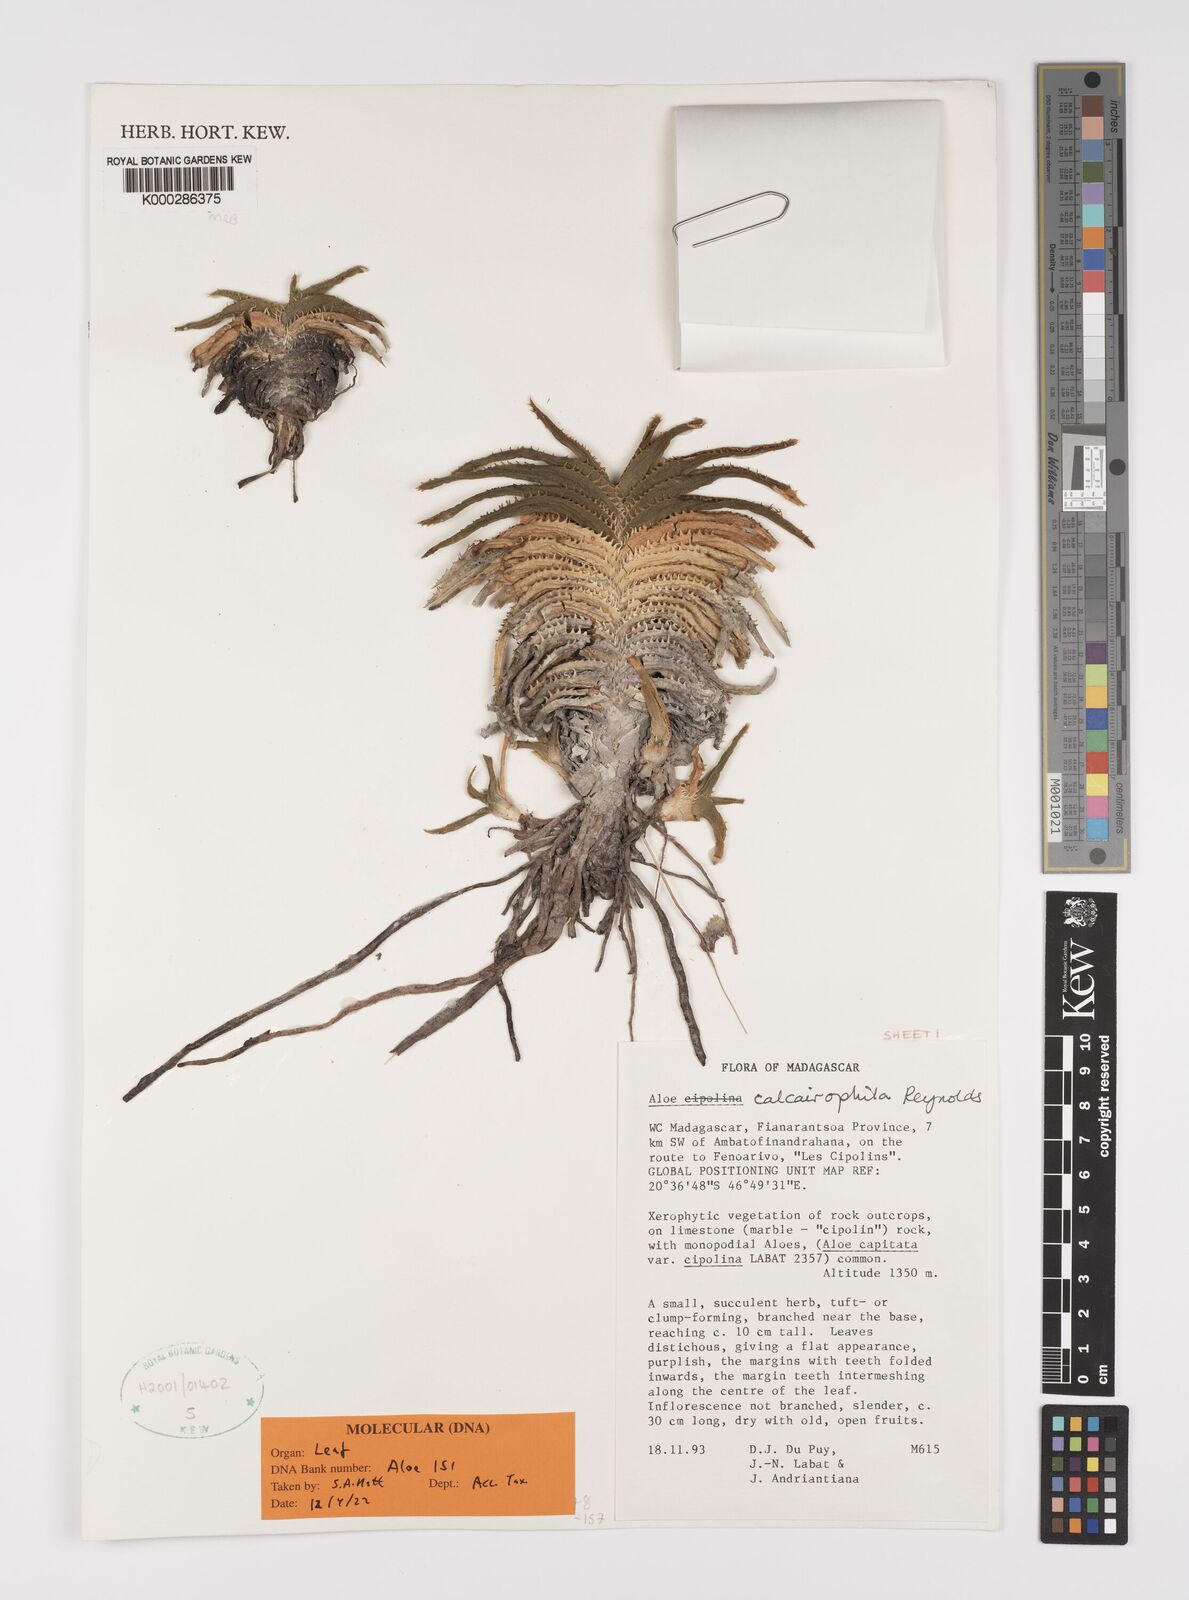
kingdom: Plantae
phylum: Tracheophyta
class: Liliopsida
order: Asparagales
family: Asphodelaceae
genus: Aloe
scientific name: Aloe calcairophila
